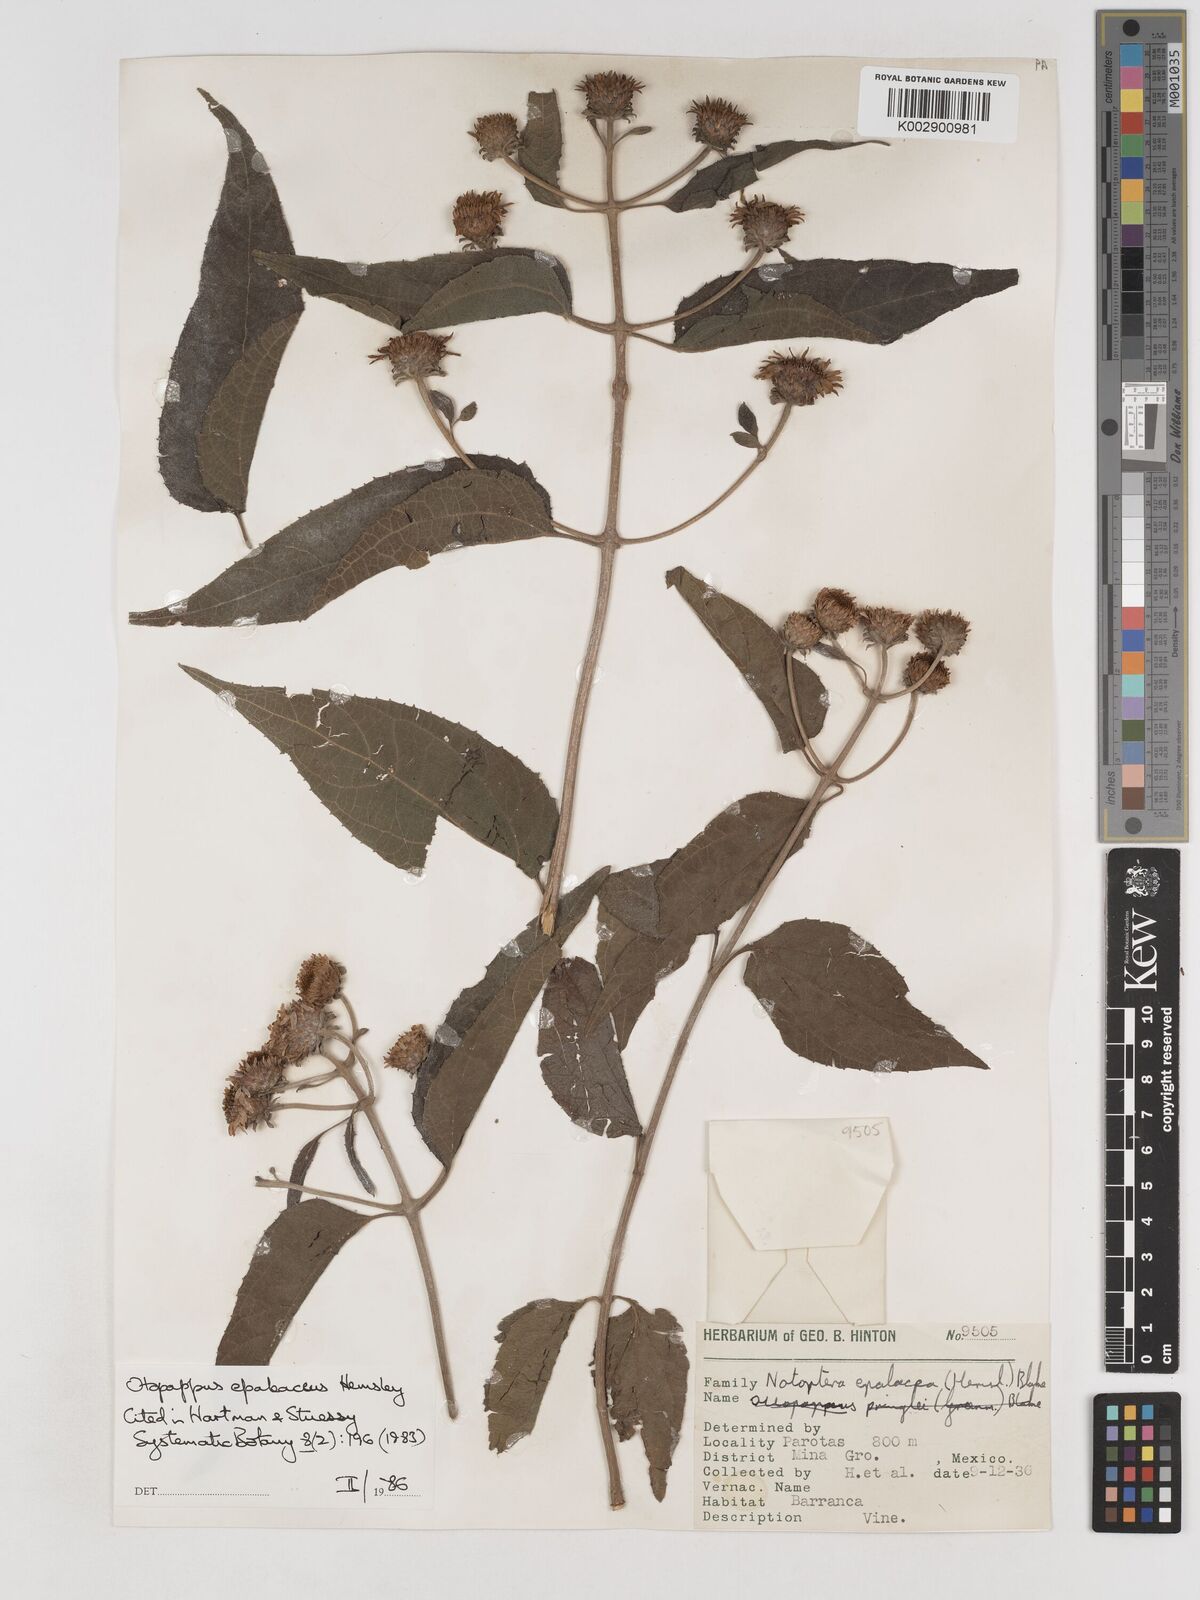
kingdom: Plantae
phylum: Tracheophyta
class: Magnoliopsida
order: Asterales
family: Asteraceae
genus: Otopappus
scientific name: Otopappus epaleaceus
